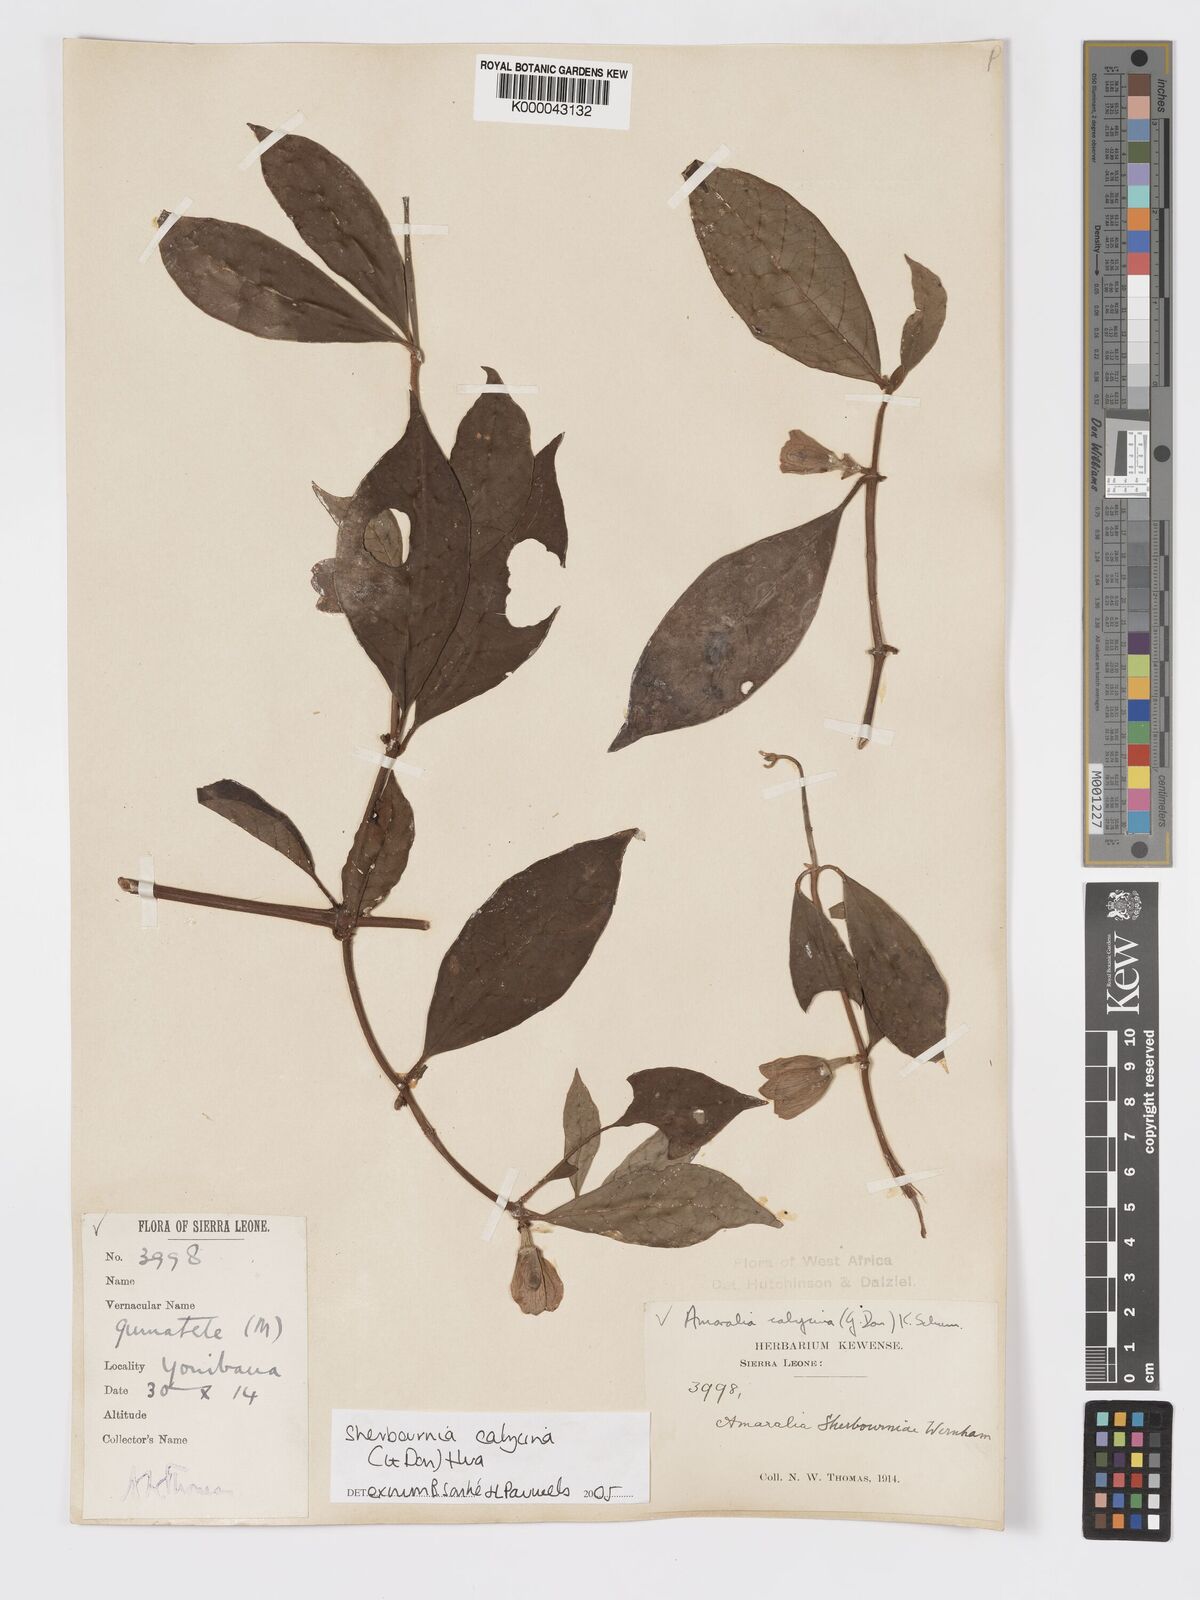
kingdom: Plantae
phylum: Tracheophyta
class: Magnoliopsida
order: Gentianales
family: Rubiaceae
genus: Sherbournia
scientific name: Sherbournia calycina
